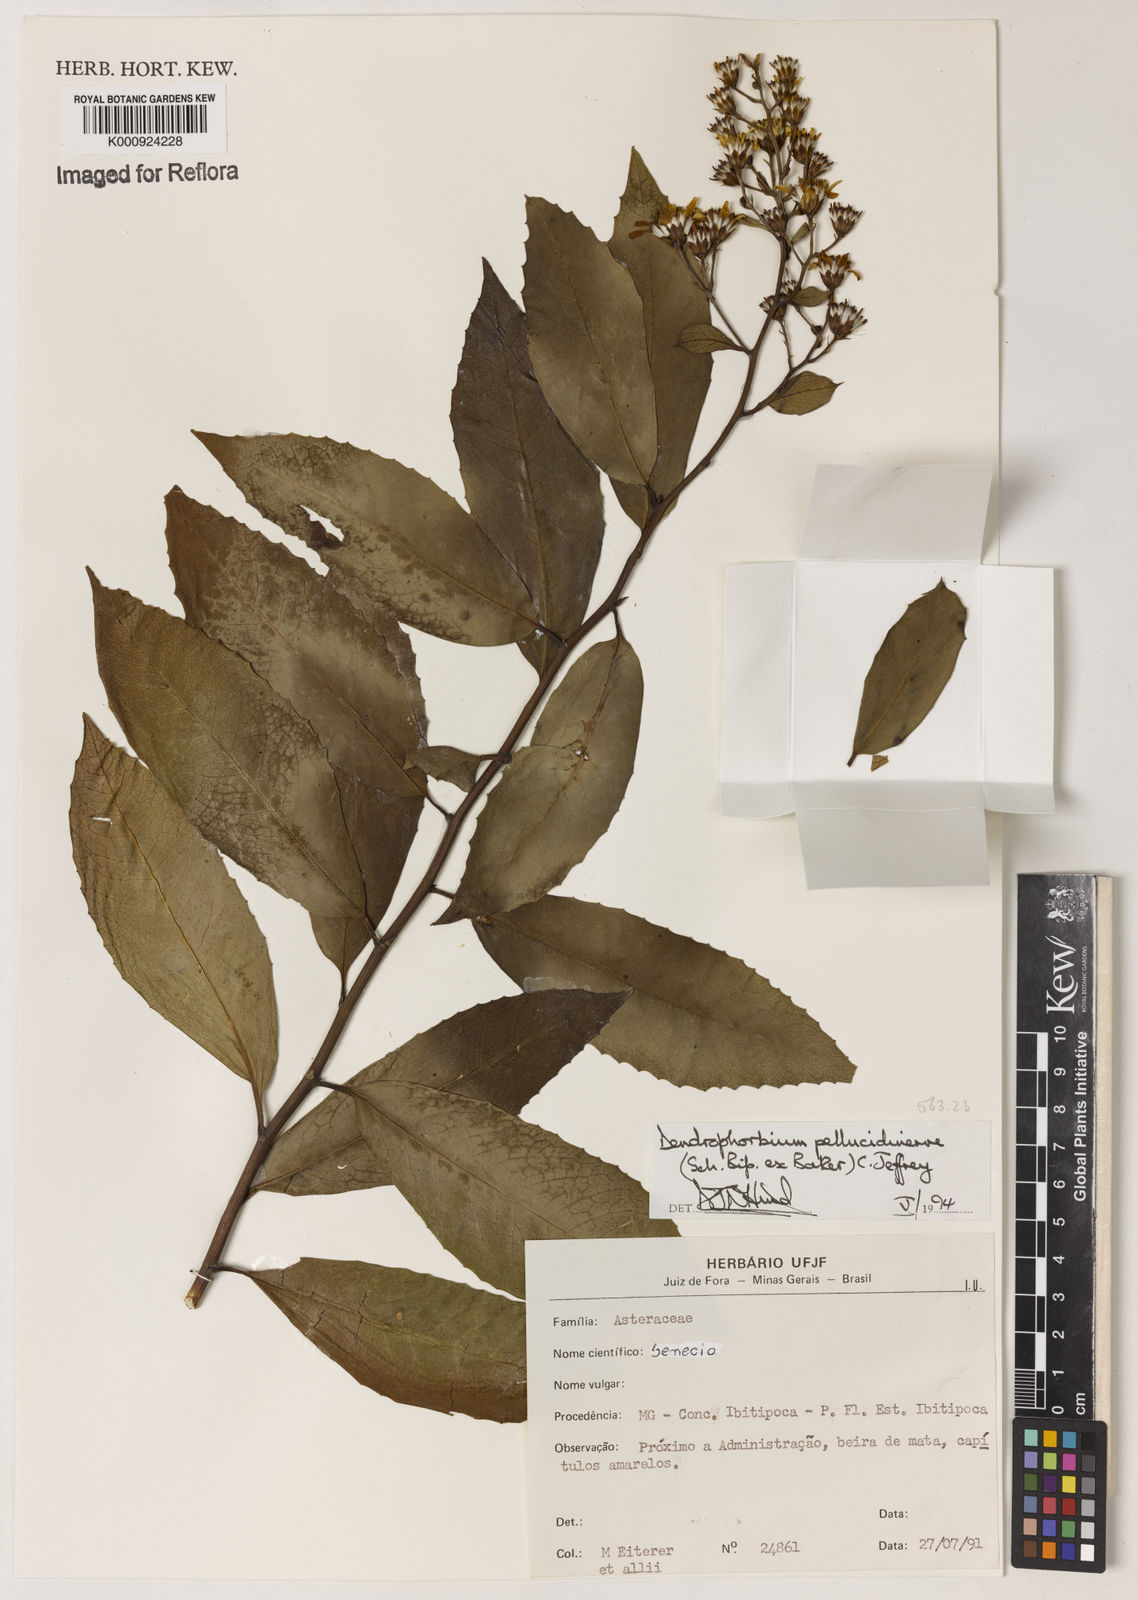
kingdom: Plantae
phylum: Tracheophyta
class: Magnoliopsida
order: Asterales
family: Asteraceae
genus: Dendrophorbium
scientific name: Dendrophorbium pellucidinerve
